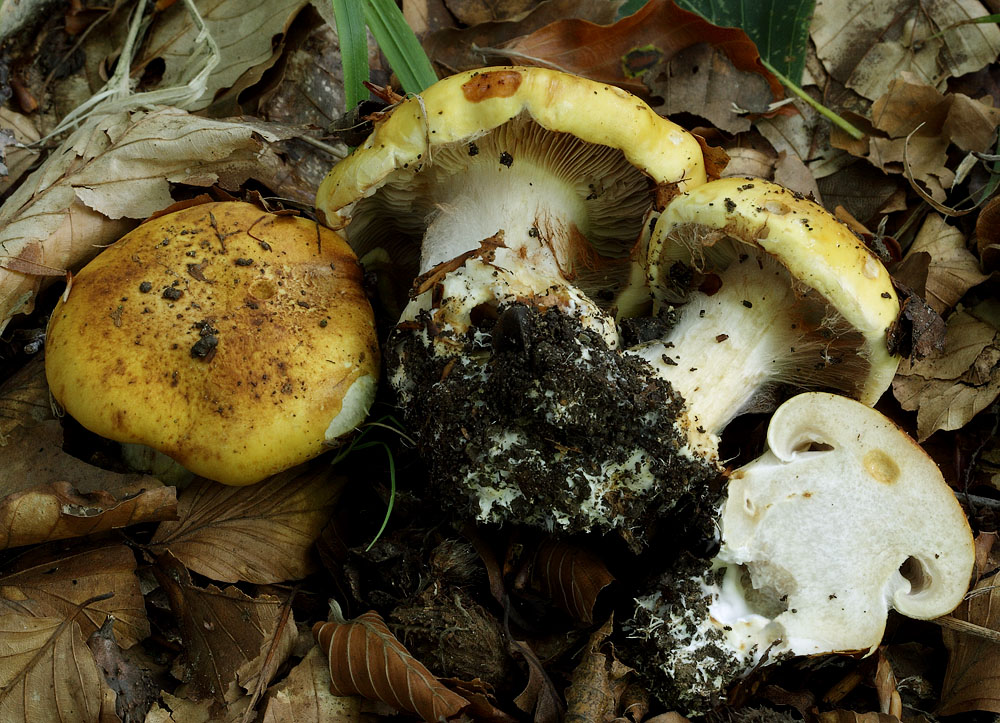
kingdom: Fungi
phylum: Basidiomycota
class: Agaricomycetes
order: Agaricales
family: Cortinariaceae
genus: Phlegmacium
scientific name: Phlegmacium caesiocortinatum
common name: rundsporet slørhat
